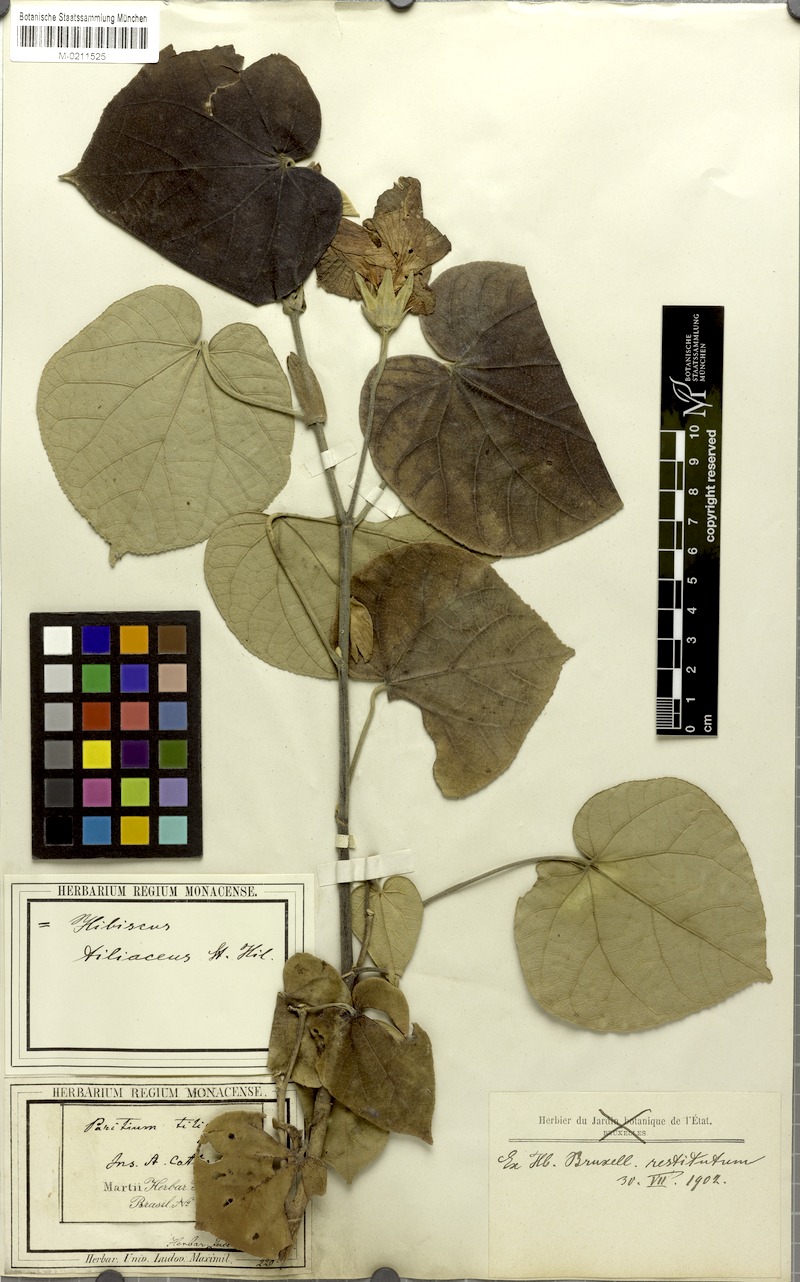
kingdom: Plantae
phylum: Tracheophyta
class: Magnoliopsida
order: Malvales
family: Malvaceae
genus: Talipariti
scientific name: Talipariti tiliaceum
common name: Sea hibiscus
